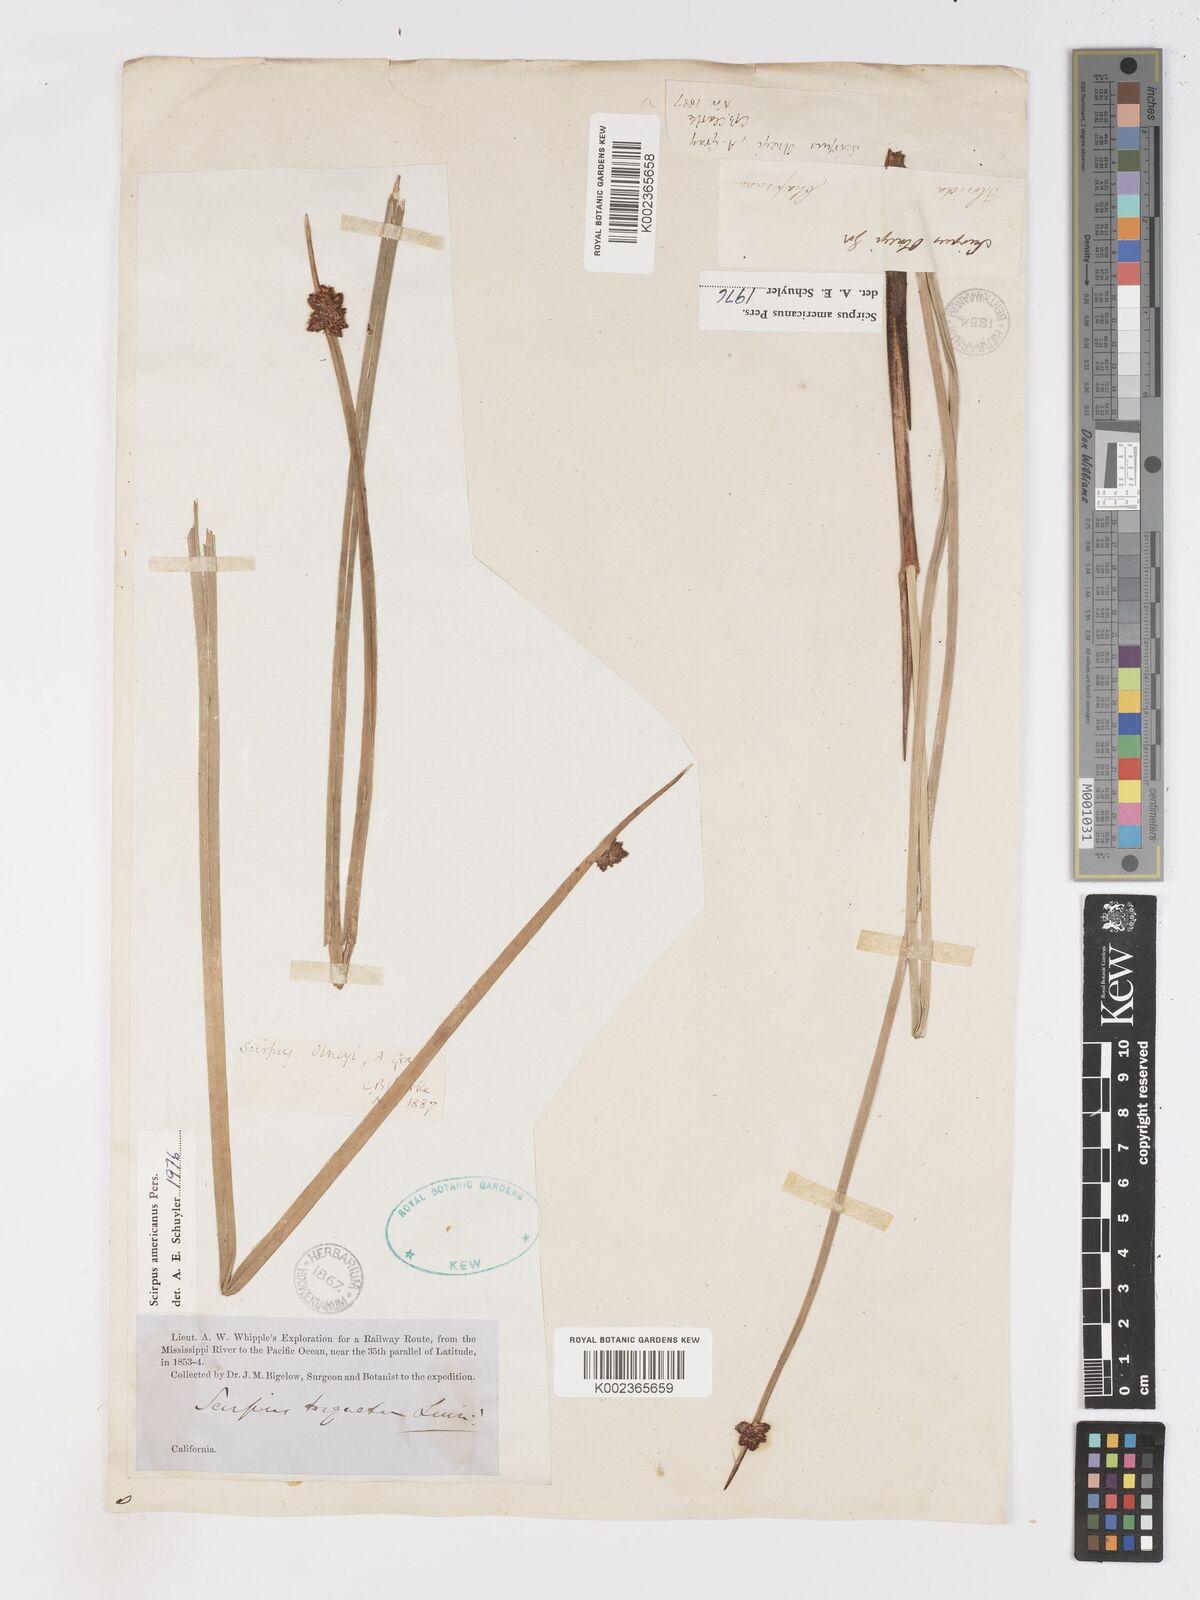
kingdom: Plantae
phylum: Tracheophyta
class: Liliopsida
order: Poales
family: Cyperaceae
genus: Schoenoplectus
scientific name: Schoenoplectus americanus
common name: American three-square bulrush
